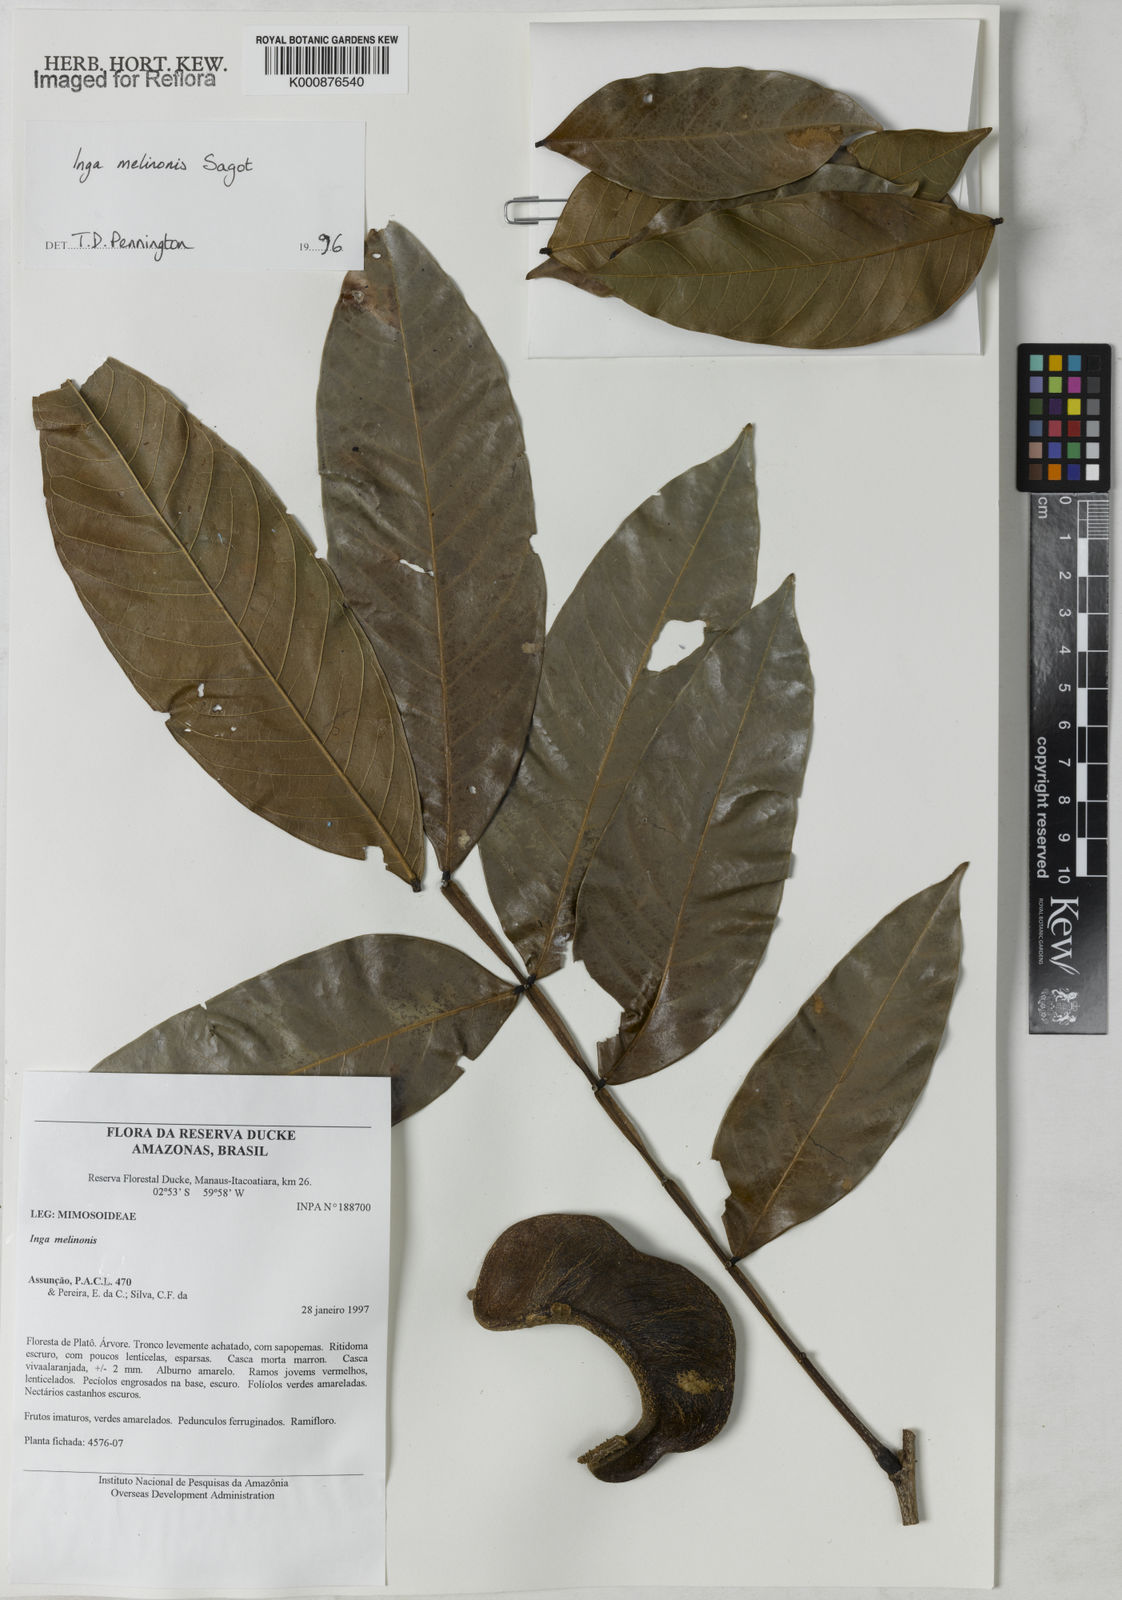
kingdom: Plantae
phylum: Tracheophyta
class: Magnoliopsida
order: Fabales
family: Fabaceae
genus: Inga
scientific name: Inga ruiziana
